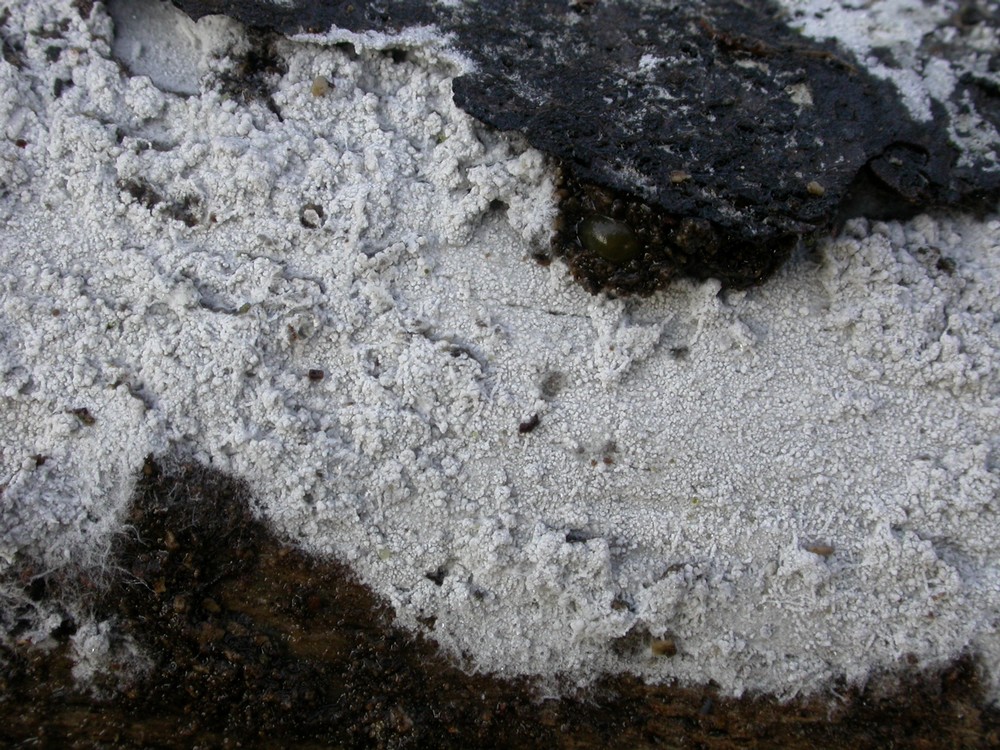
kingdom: Fungi
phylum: Basidiomycota
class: Agaricomycetes
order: Cantharellales
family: Hydnaceae
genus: Sistotrema
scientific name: Sistotrema brinkmannii
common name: bønnesporet kroneskorpe
